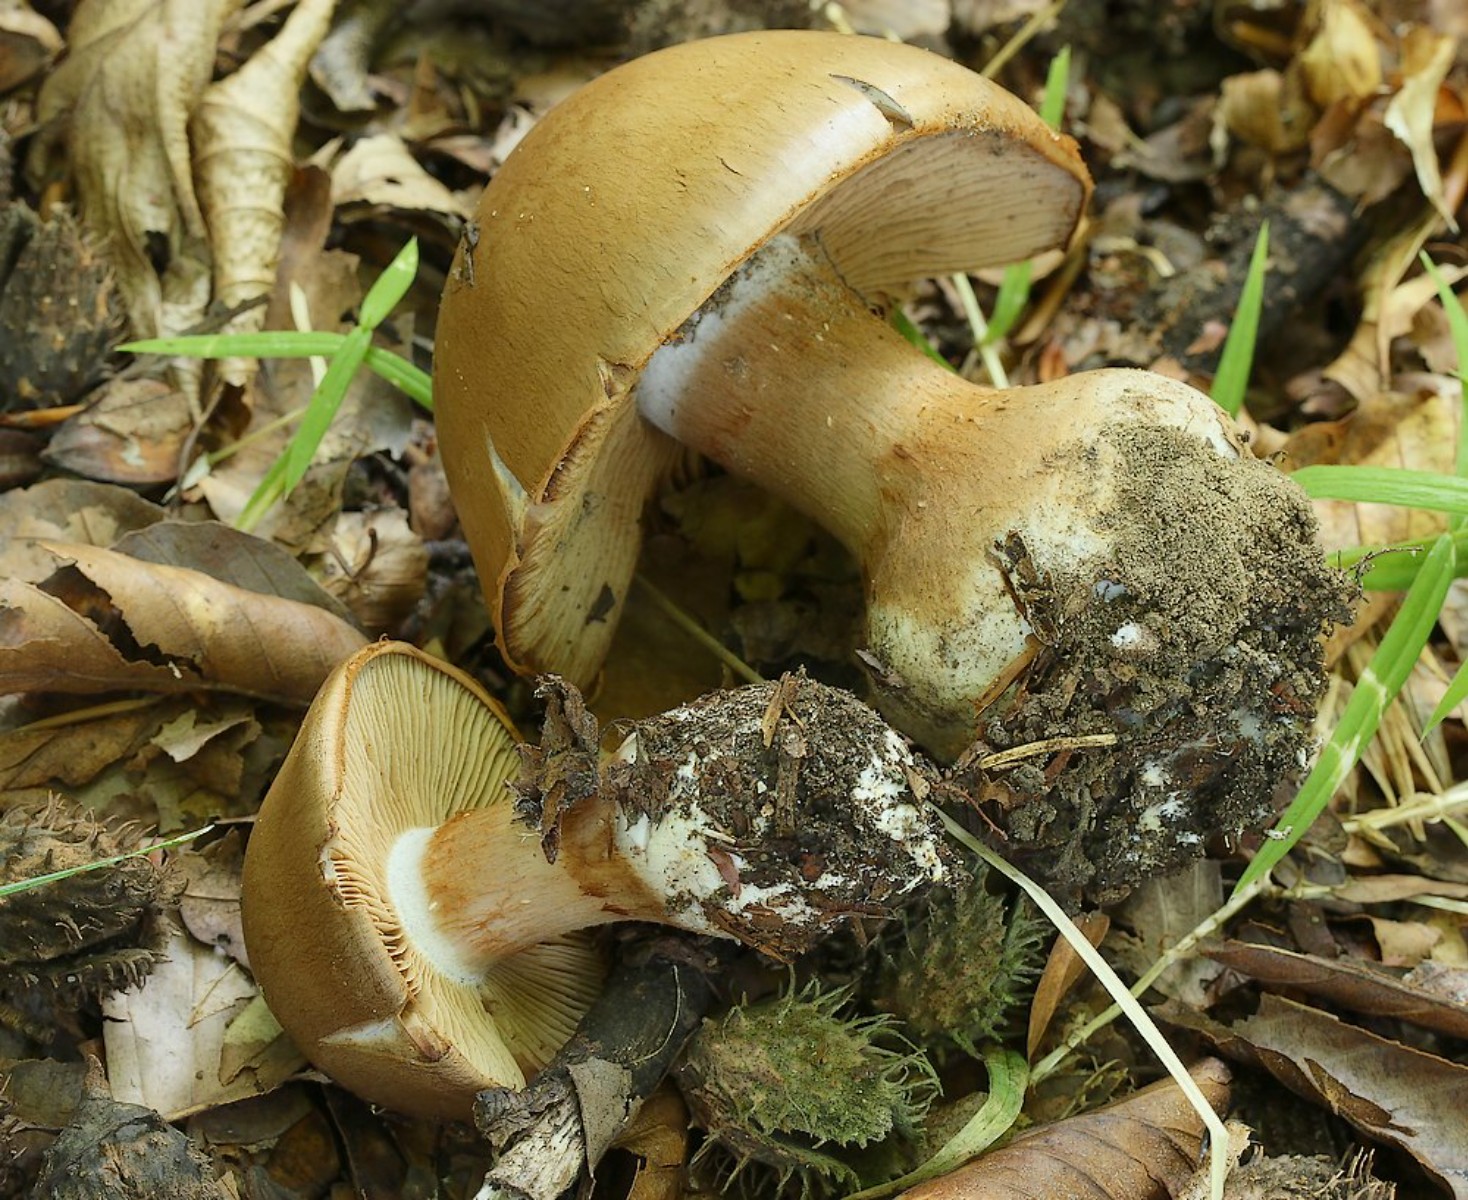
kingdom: Fungi
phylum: Basidiomycota
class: Agaricomycetes
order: Agaricales
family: Cortinariaceae
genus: Cortinarius
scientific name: Cortinarius
